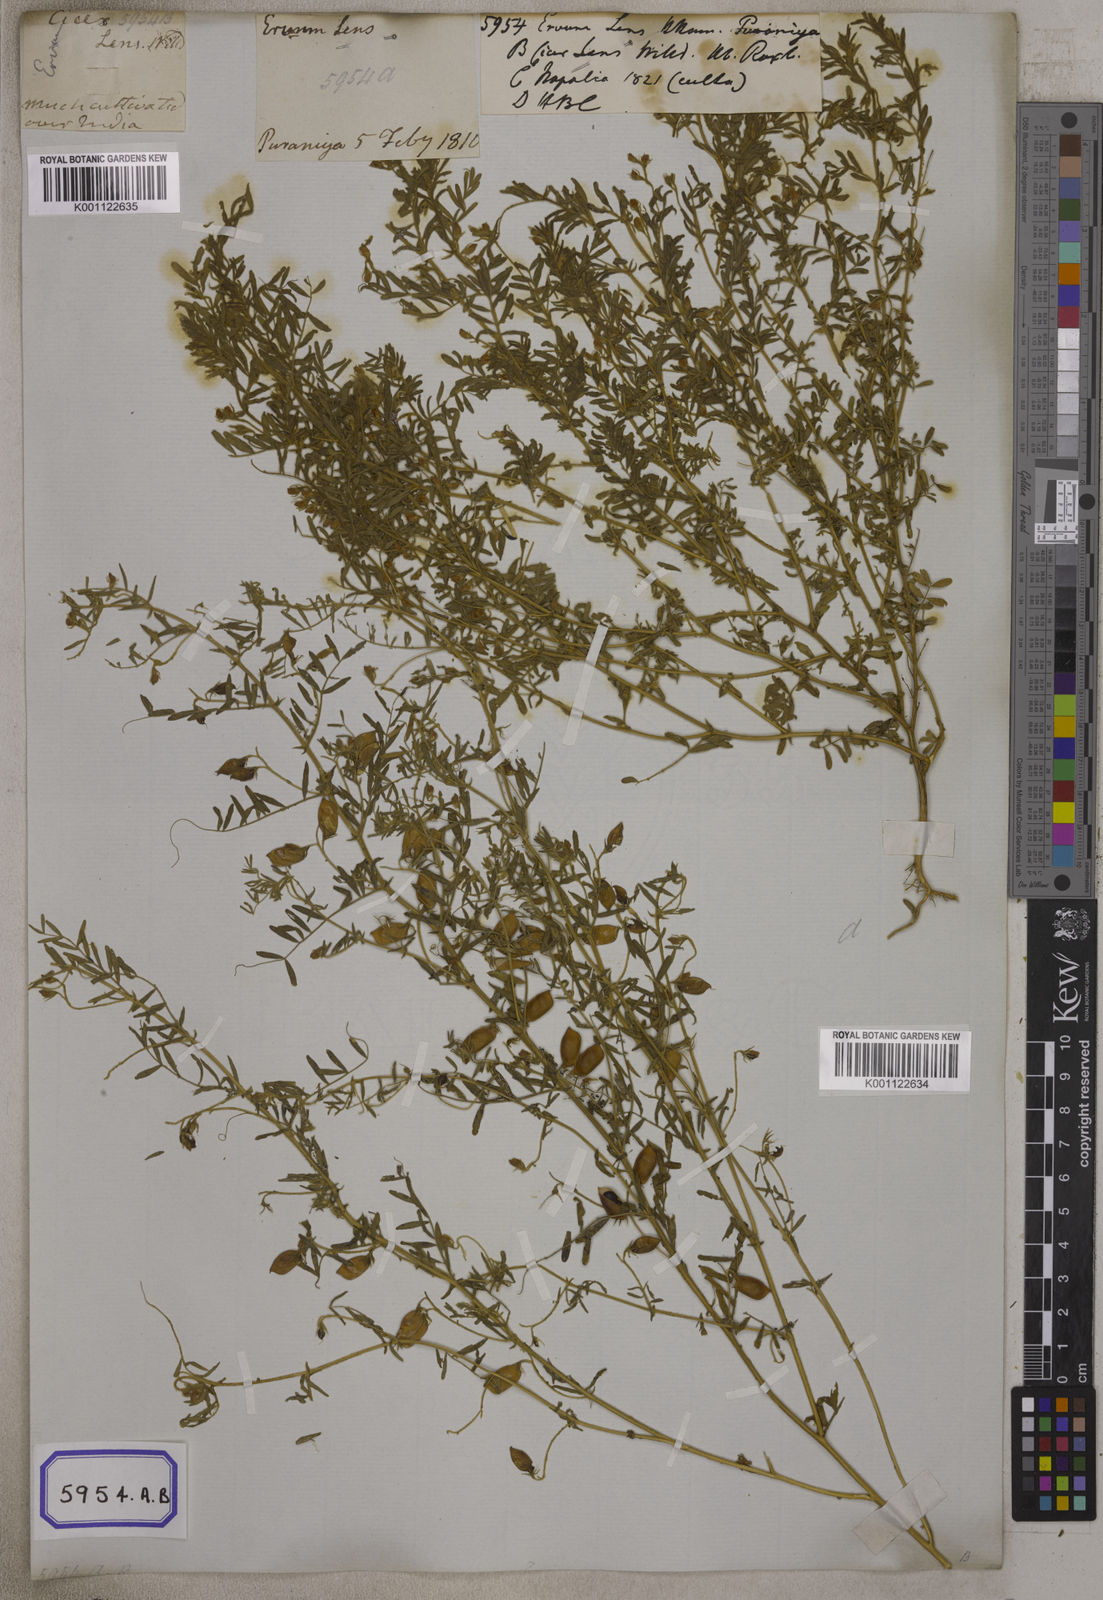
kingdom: Plantae
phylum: Tracheophyta
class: Magnoliopsida
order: Fabales
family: Fabaceae
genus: Vicia
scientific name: Vicia
